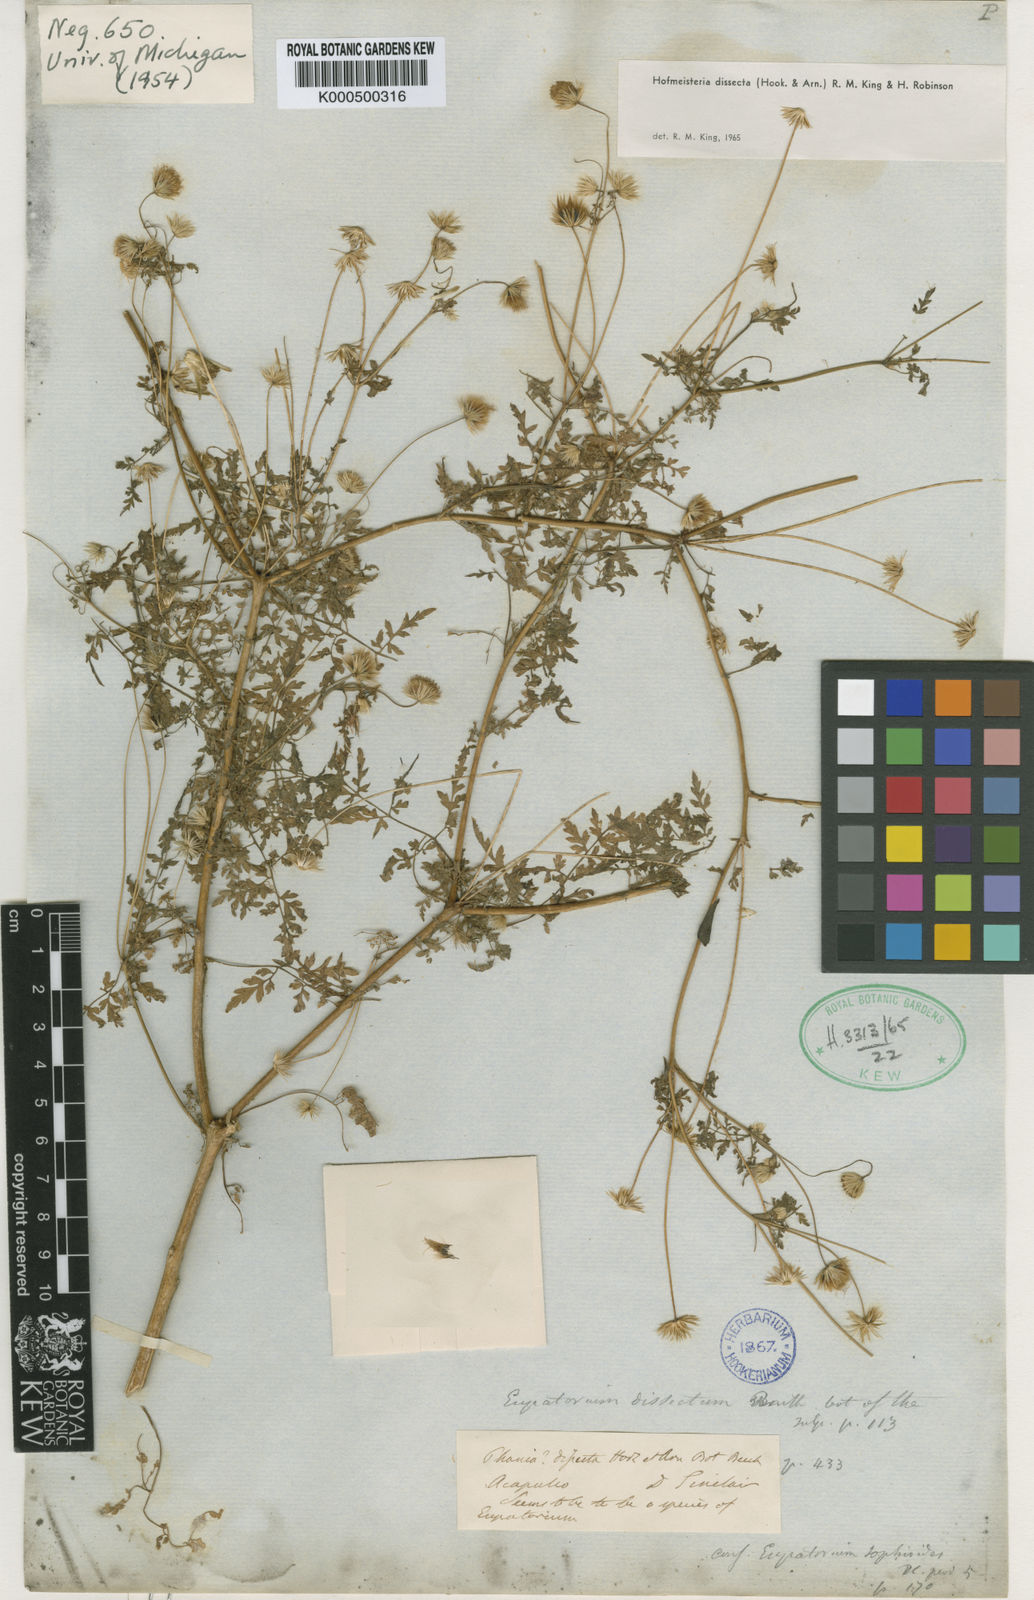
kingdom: Plantae
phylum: Tracheophyta
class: Magnoliopsida
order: Asterales
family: Asteraceae
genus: Hofmeisteria
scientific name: Hofmeisteria dissecta
